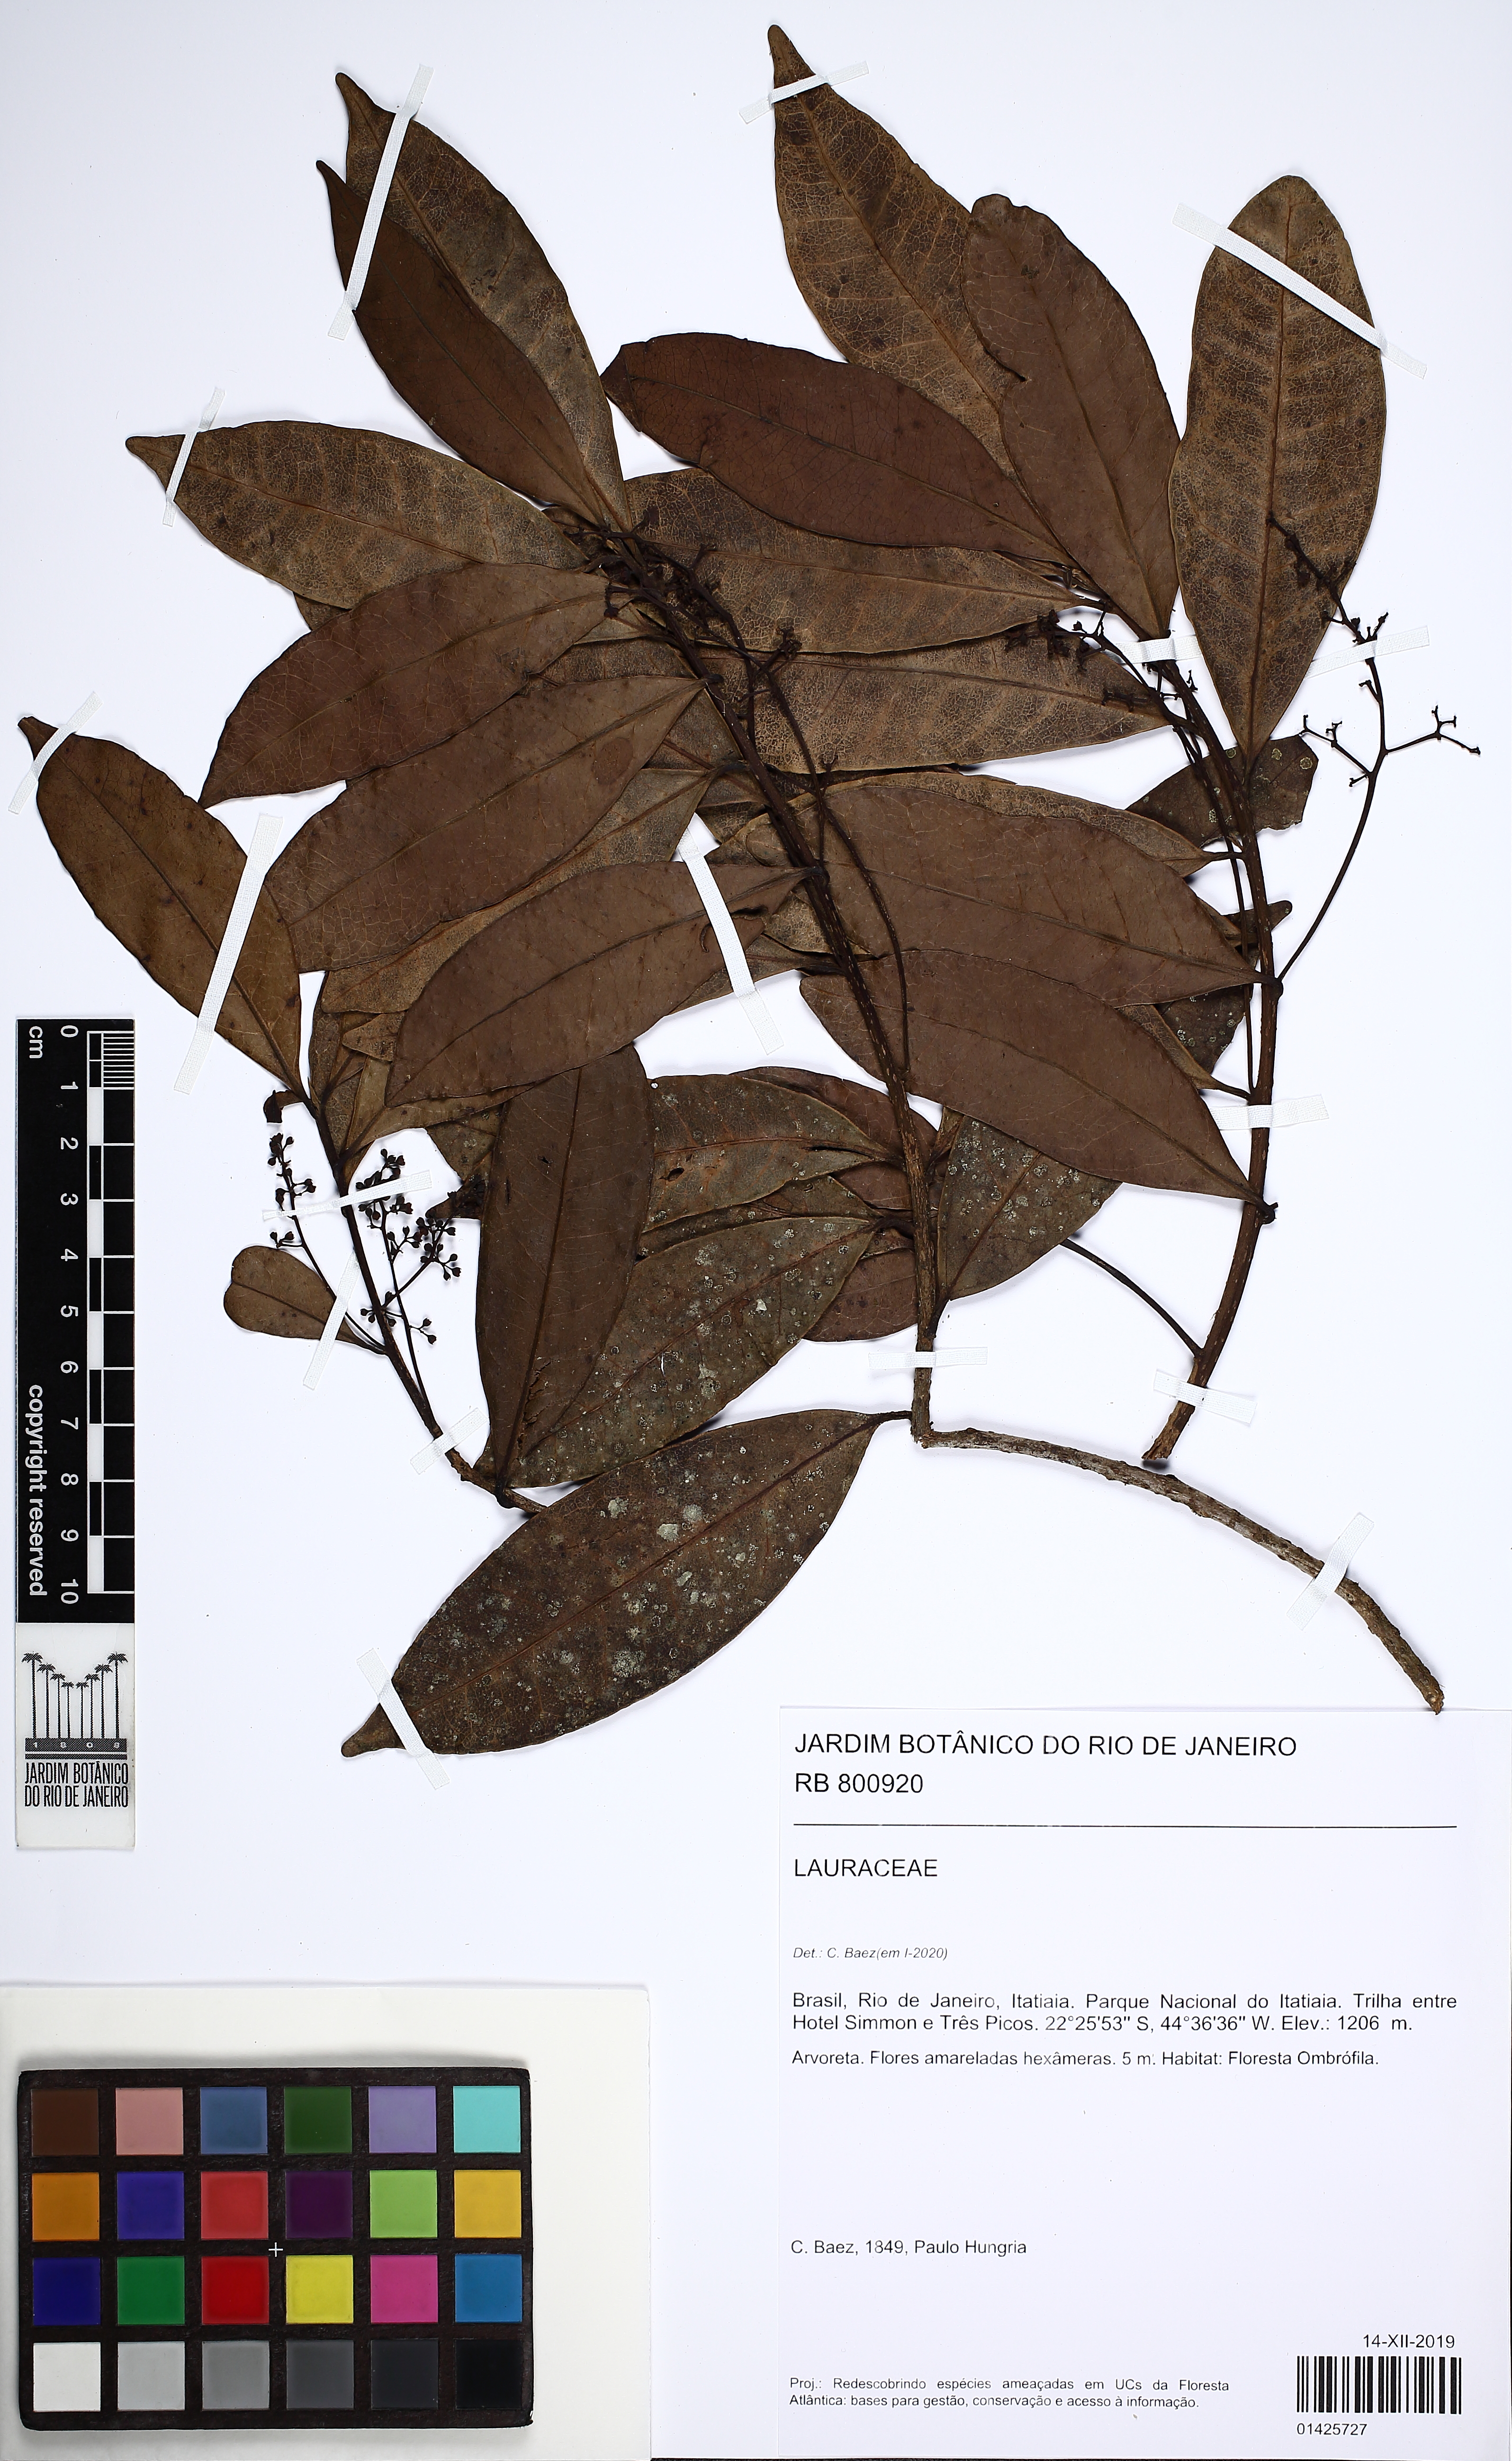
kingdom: Plantae
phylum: Tracheophyta
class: Magnoliopsida
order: Laurales
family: Lauraceae
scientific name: Lauraceae
